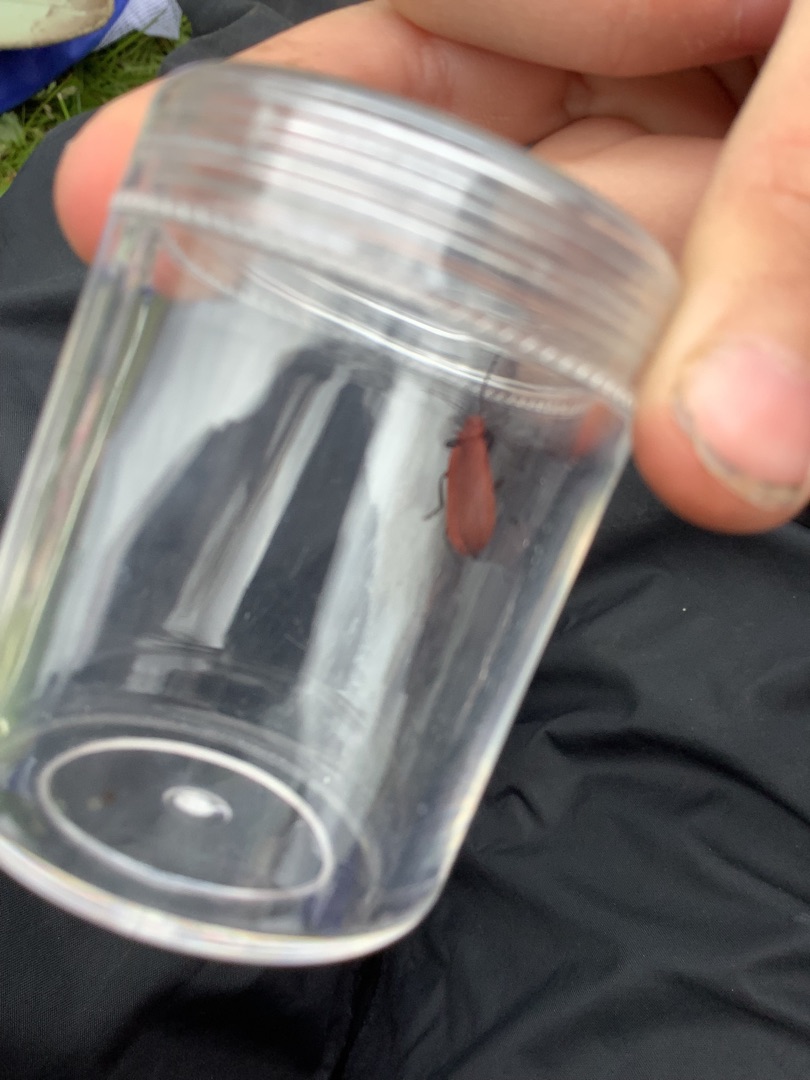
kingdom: Animalia
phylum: Arthropoda
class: Insecta
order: Coleoptera
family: Pyrochroidae
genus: Pyrochroa
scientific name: Pyrochroa serraticornis
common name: Rødhovedet kardinalbille
